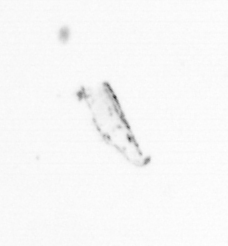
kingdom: Chromista
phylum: Ochrophyta
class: Bacillariophyceae
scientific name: Bacillariophyceae
